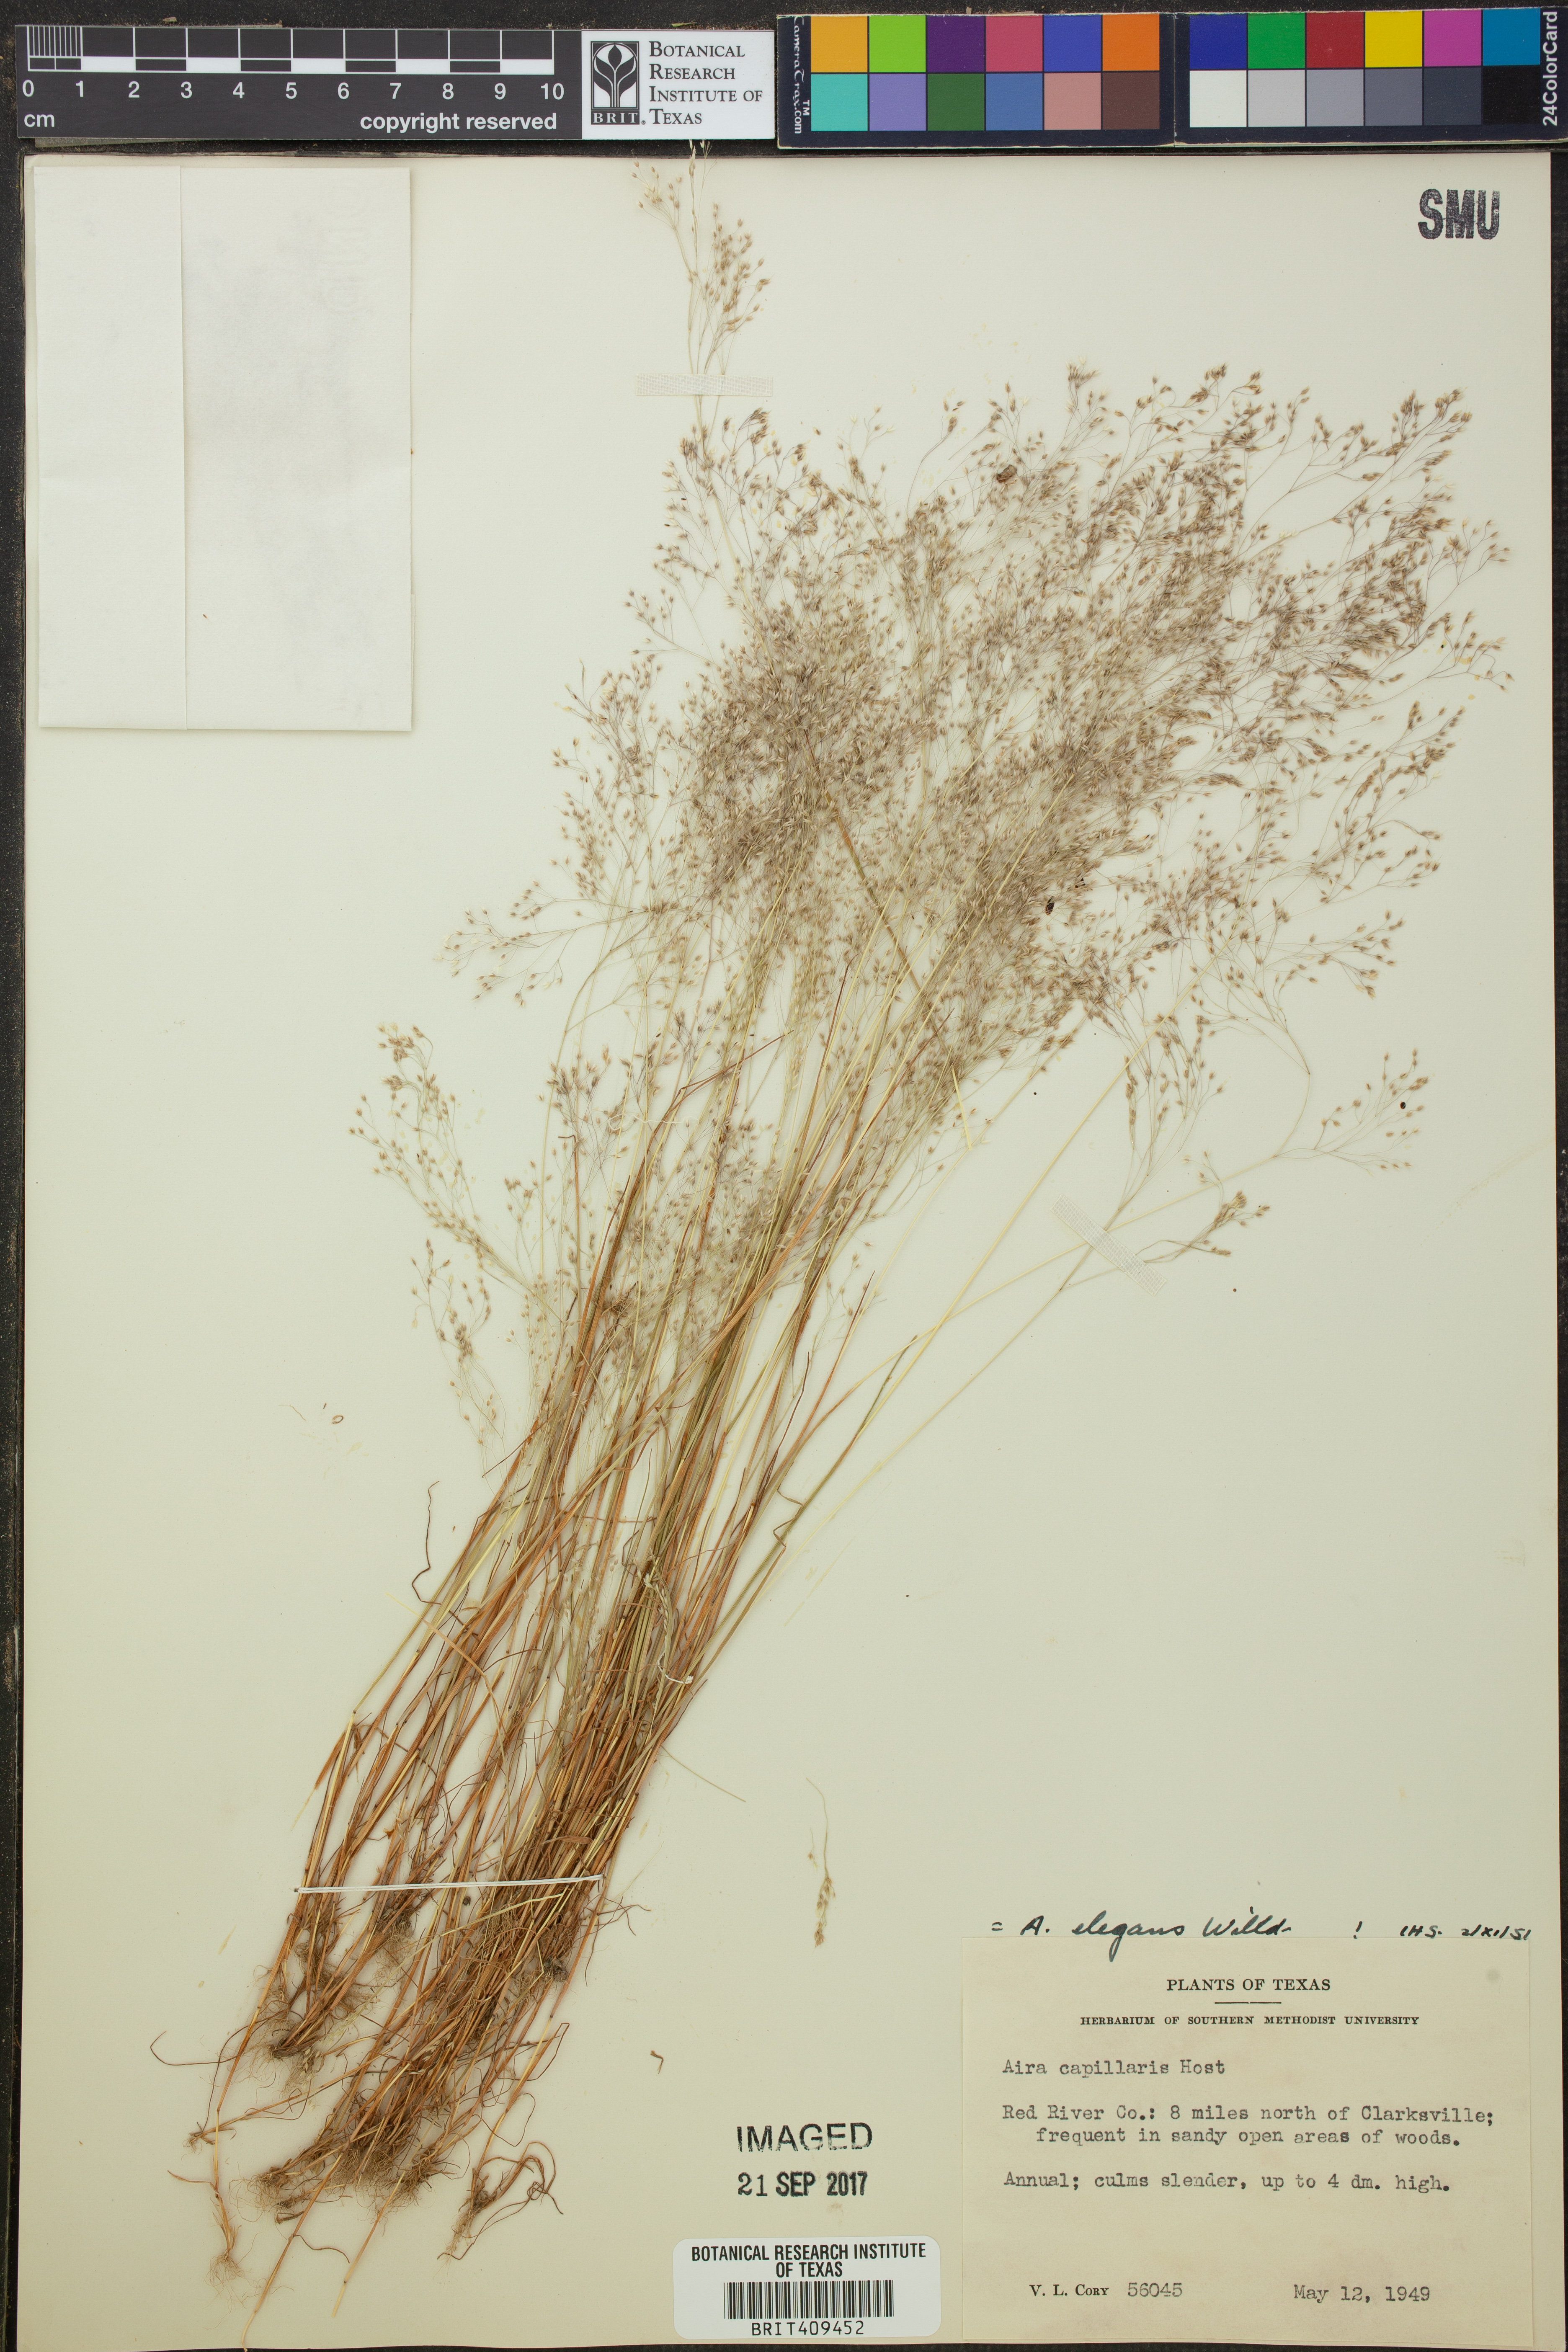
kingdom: Plantae
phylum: Tracheophyta
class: Liliopsida
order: Poales
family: Poaceae
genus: Aira
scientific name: Aira elegans
